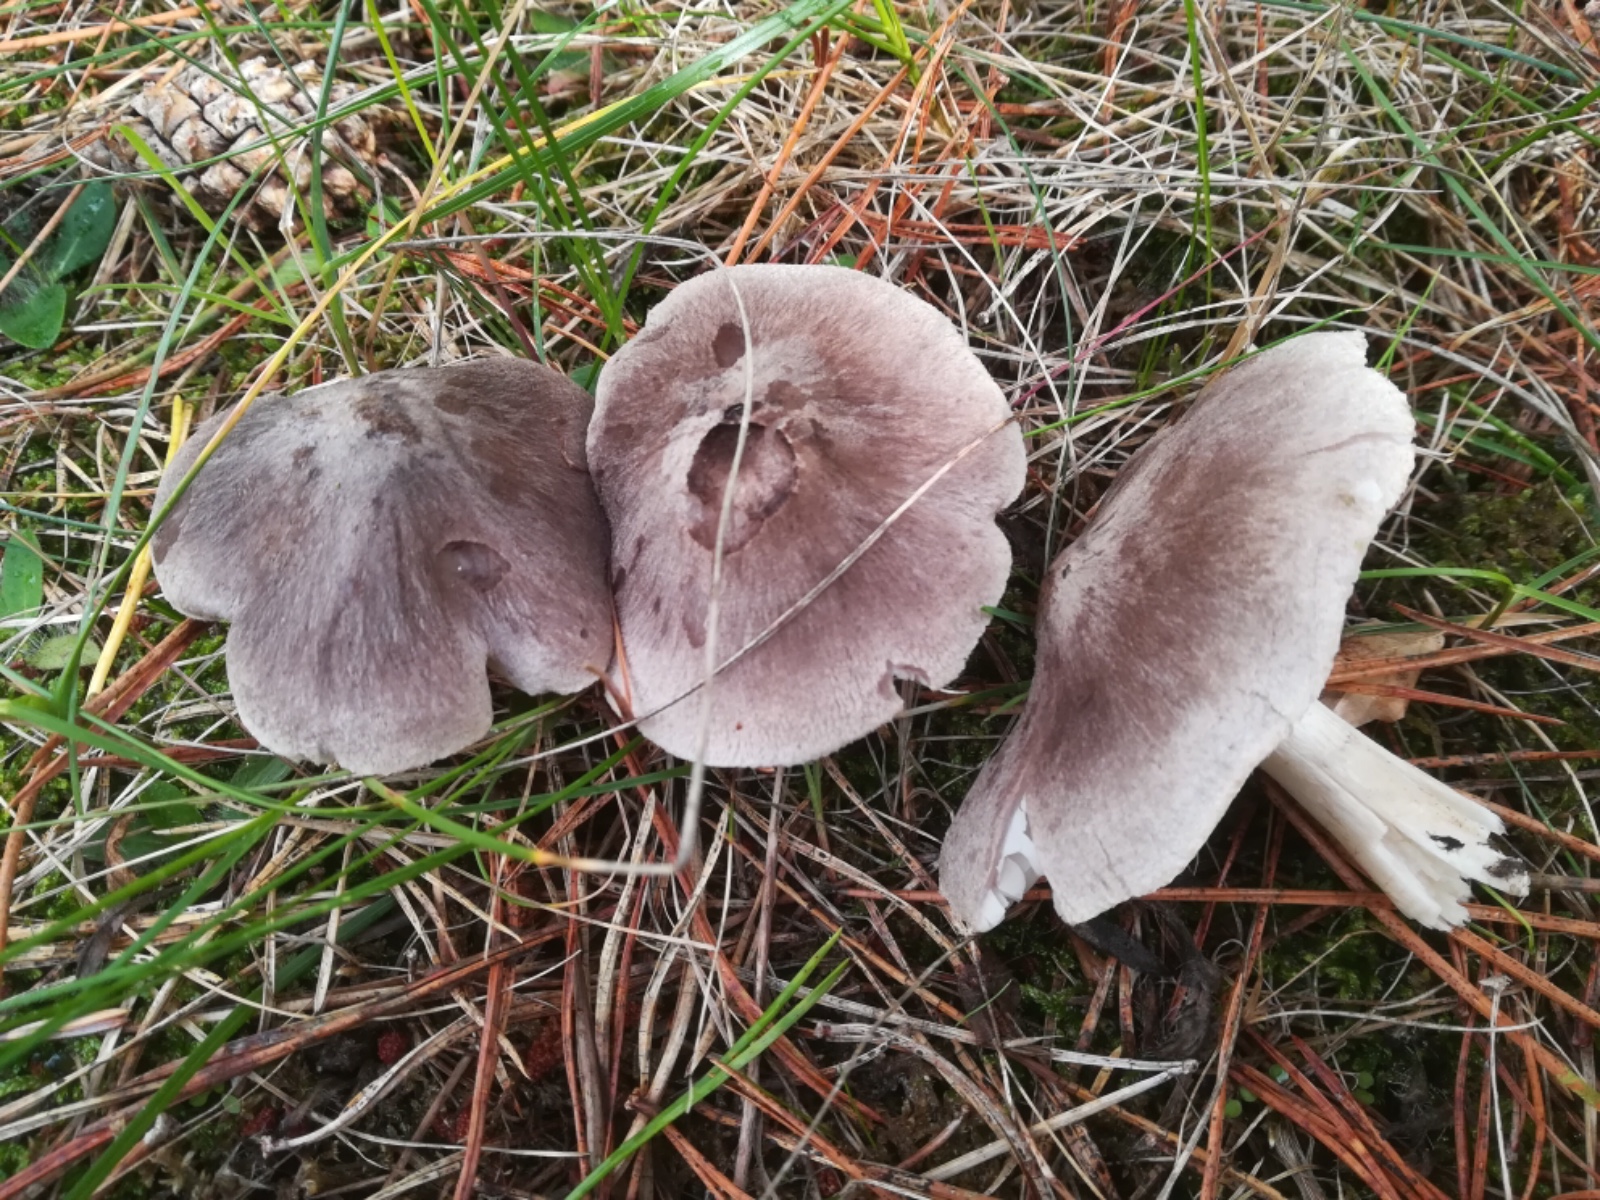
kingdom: Fungi
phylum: Basidiomycota
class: Agaricomycetes
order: Agaricales
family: Tricholomataceae
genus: Tricholoma
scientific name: Tricholoma terreum
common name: jordfarvet ridderhat
